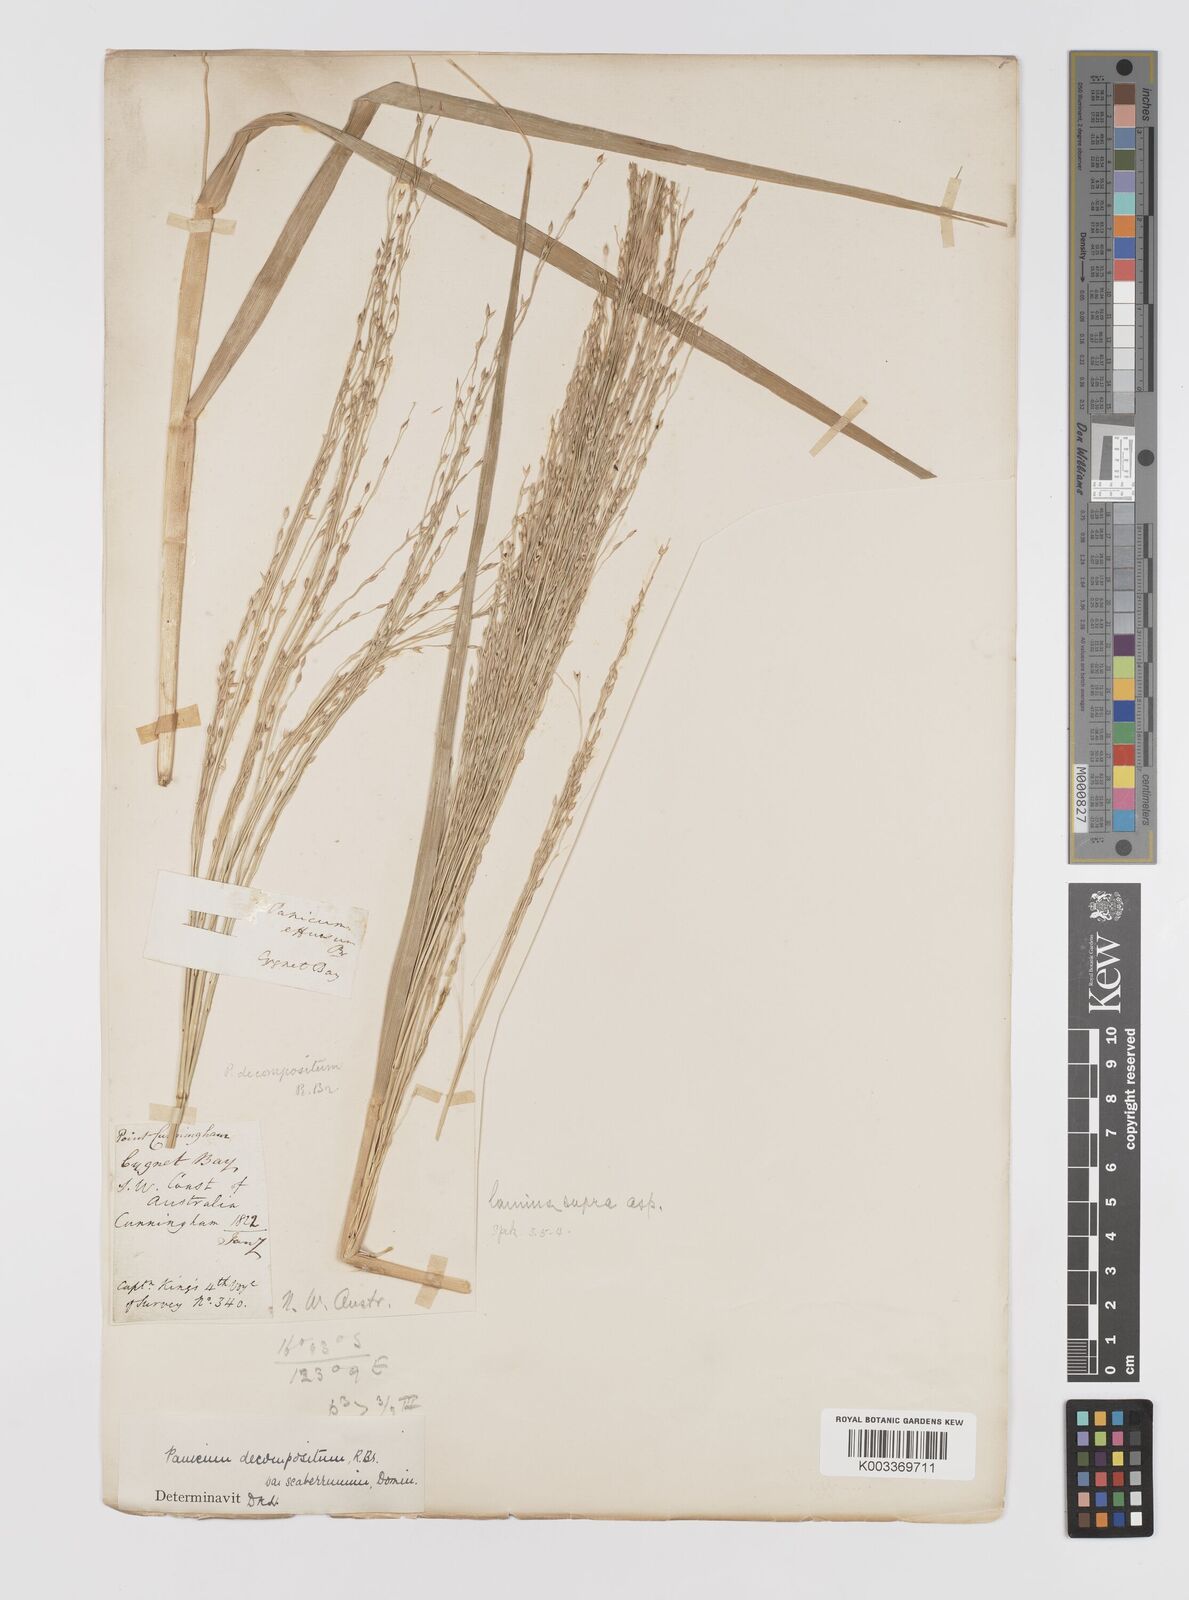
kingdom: Plantae
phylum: Tracheophyta
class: Liliopsida
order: Poales
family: Poaceae
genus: Panicum
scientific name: Panicum decompositum
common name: Australian millet
